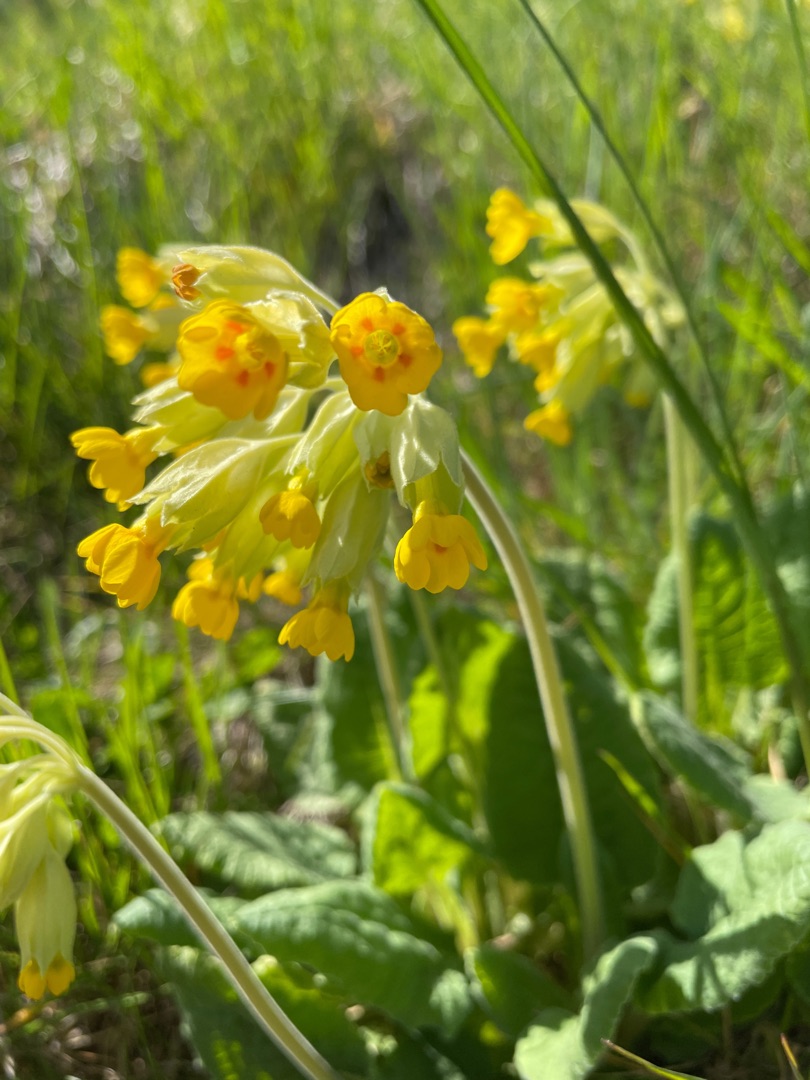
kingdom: Plantae
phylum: Tracheophyta
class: Magnoliopsida
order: Ericales
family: Primulaceae
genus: Primula
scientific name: Primula veris
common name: Hulkravet kodriver
